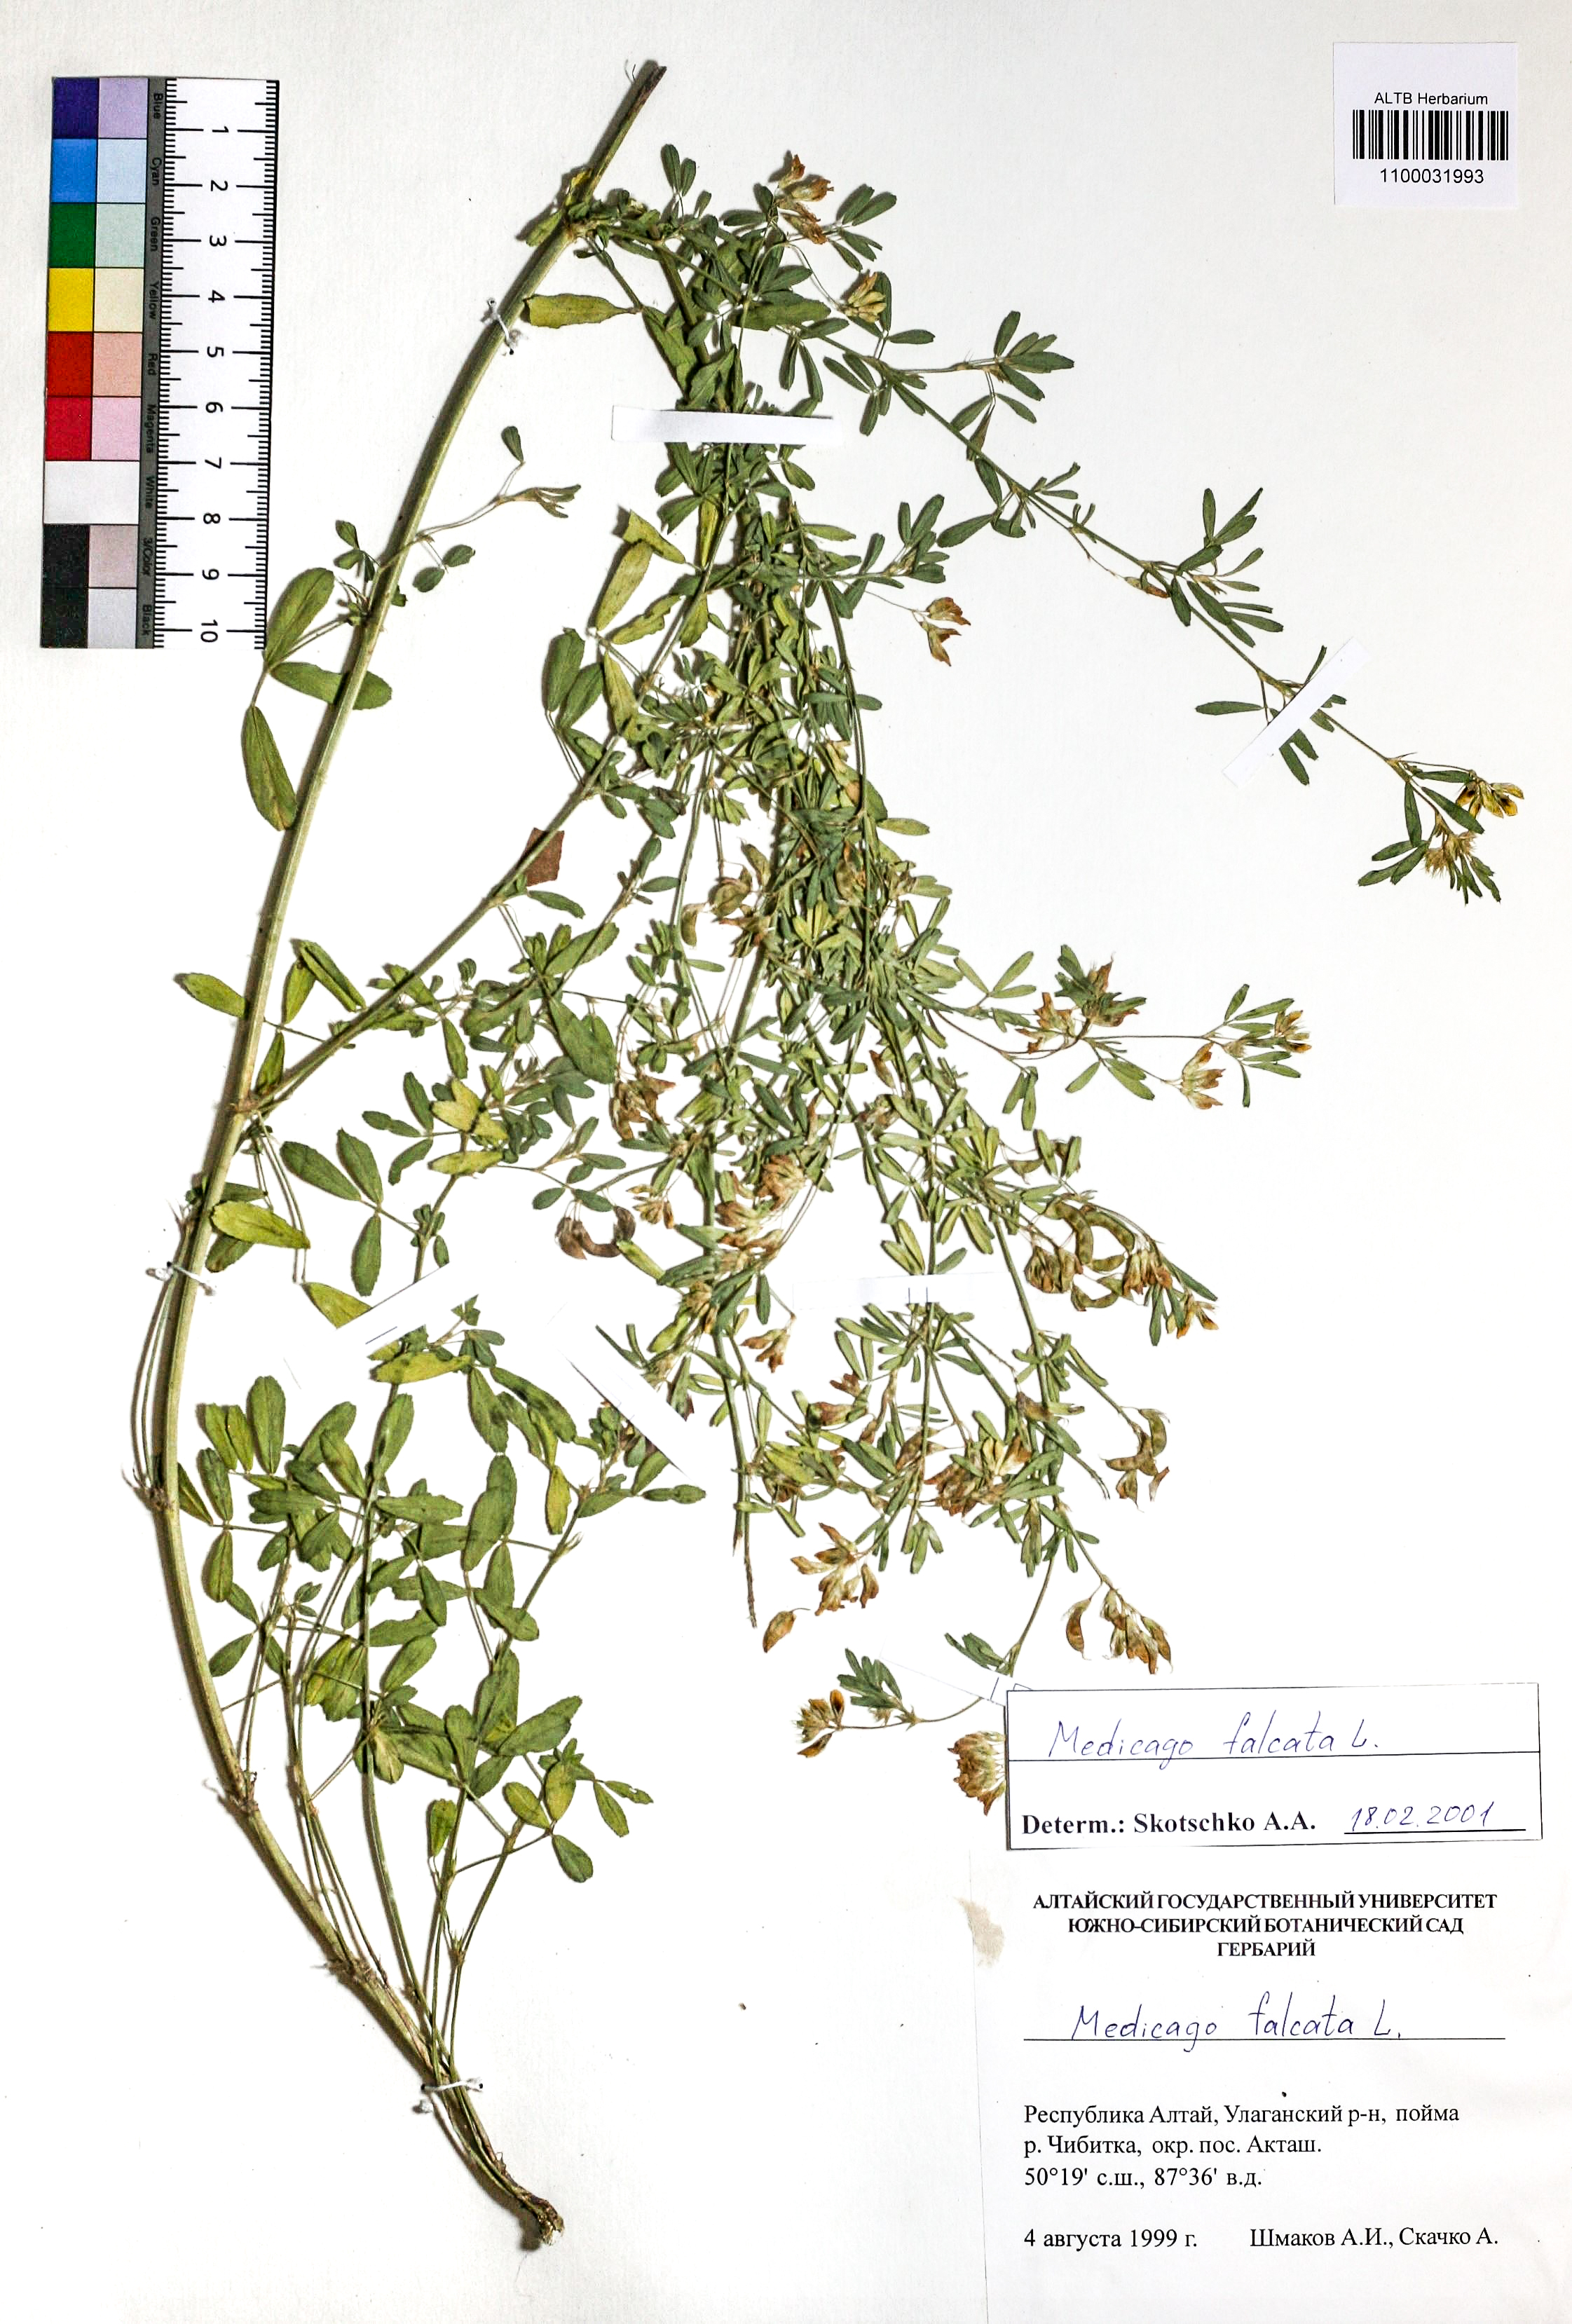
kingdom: Plantae
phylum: Tracheophyta
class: Magnoliopsida
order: Fabales
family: Fabaceae
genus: Medicago
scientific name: Medicago falcata
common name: Sickle medick
